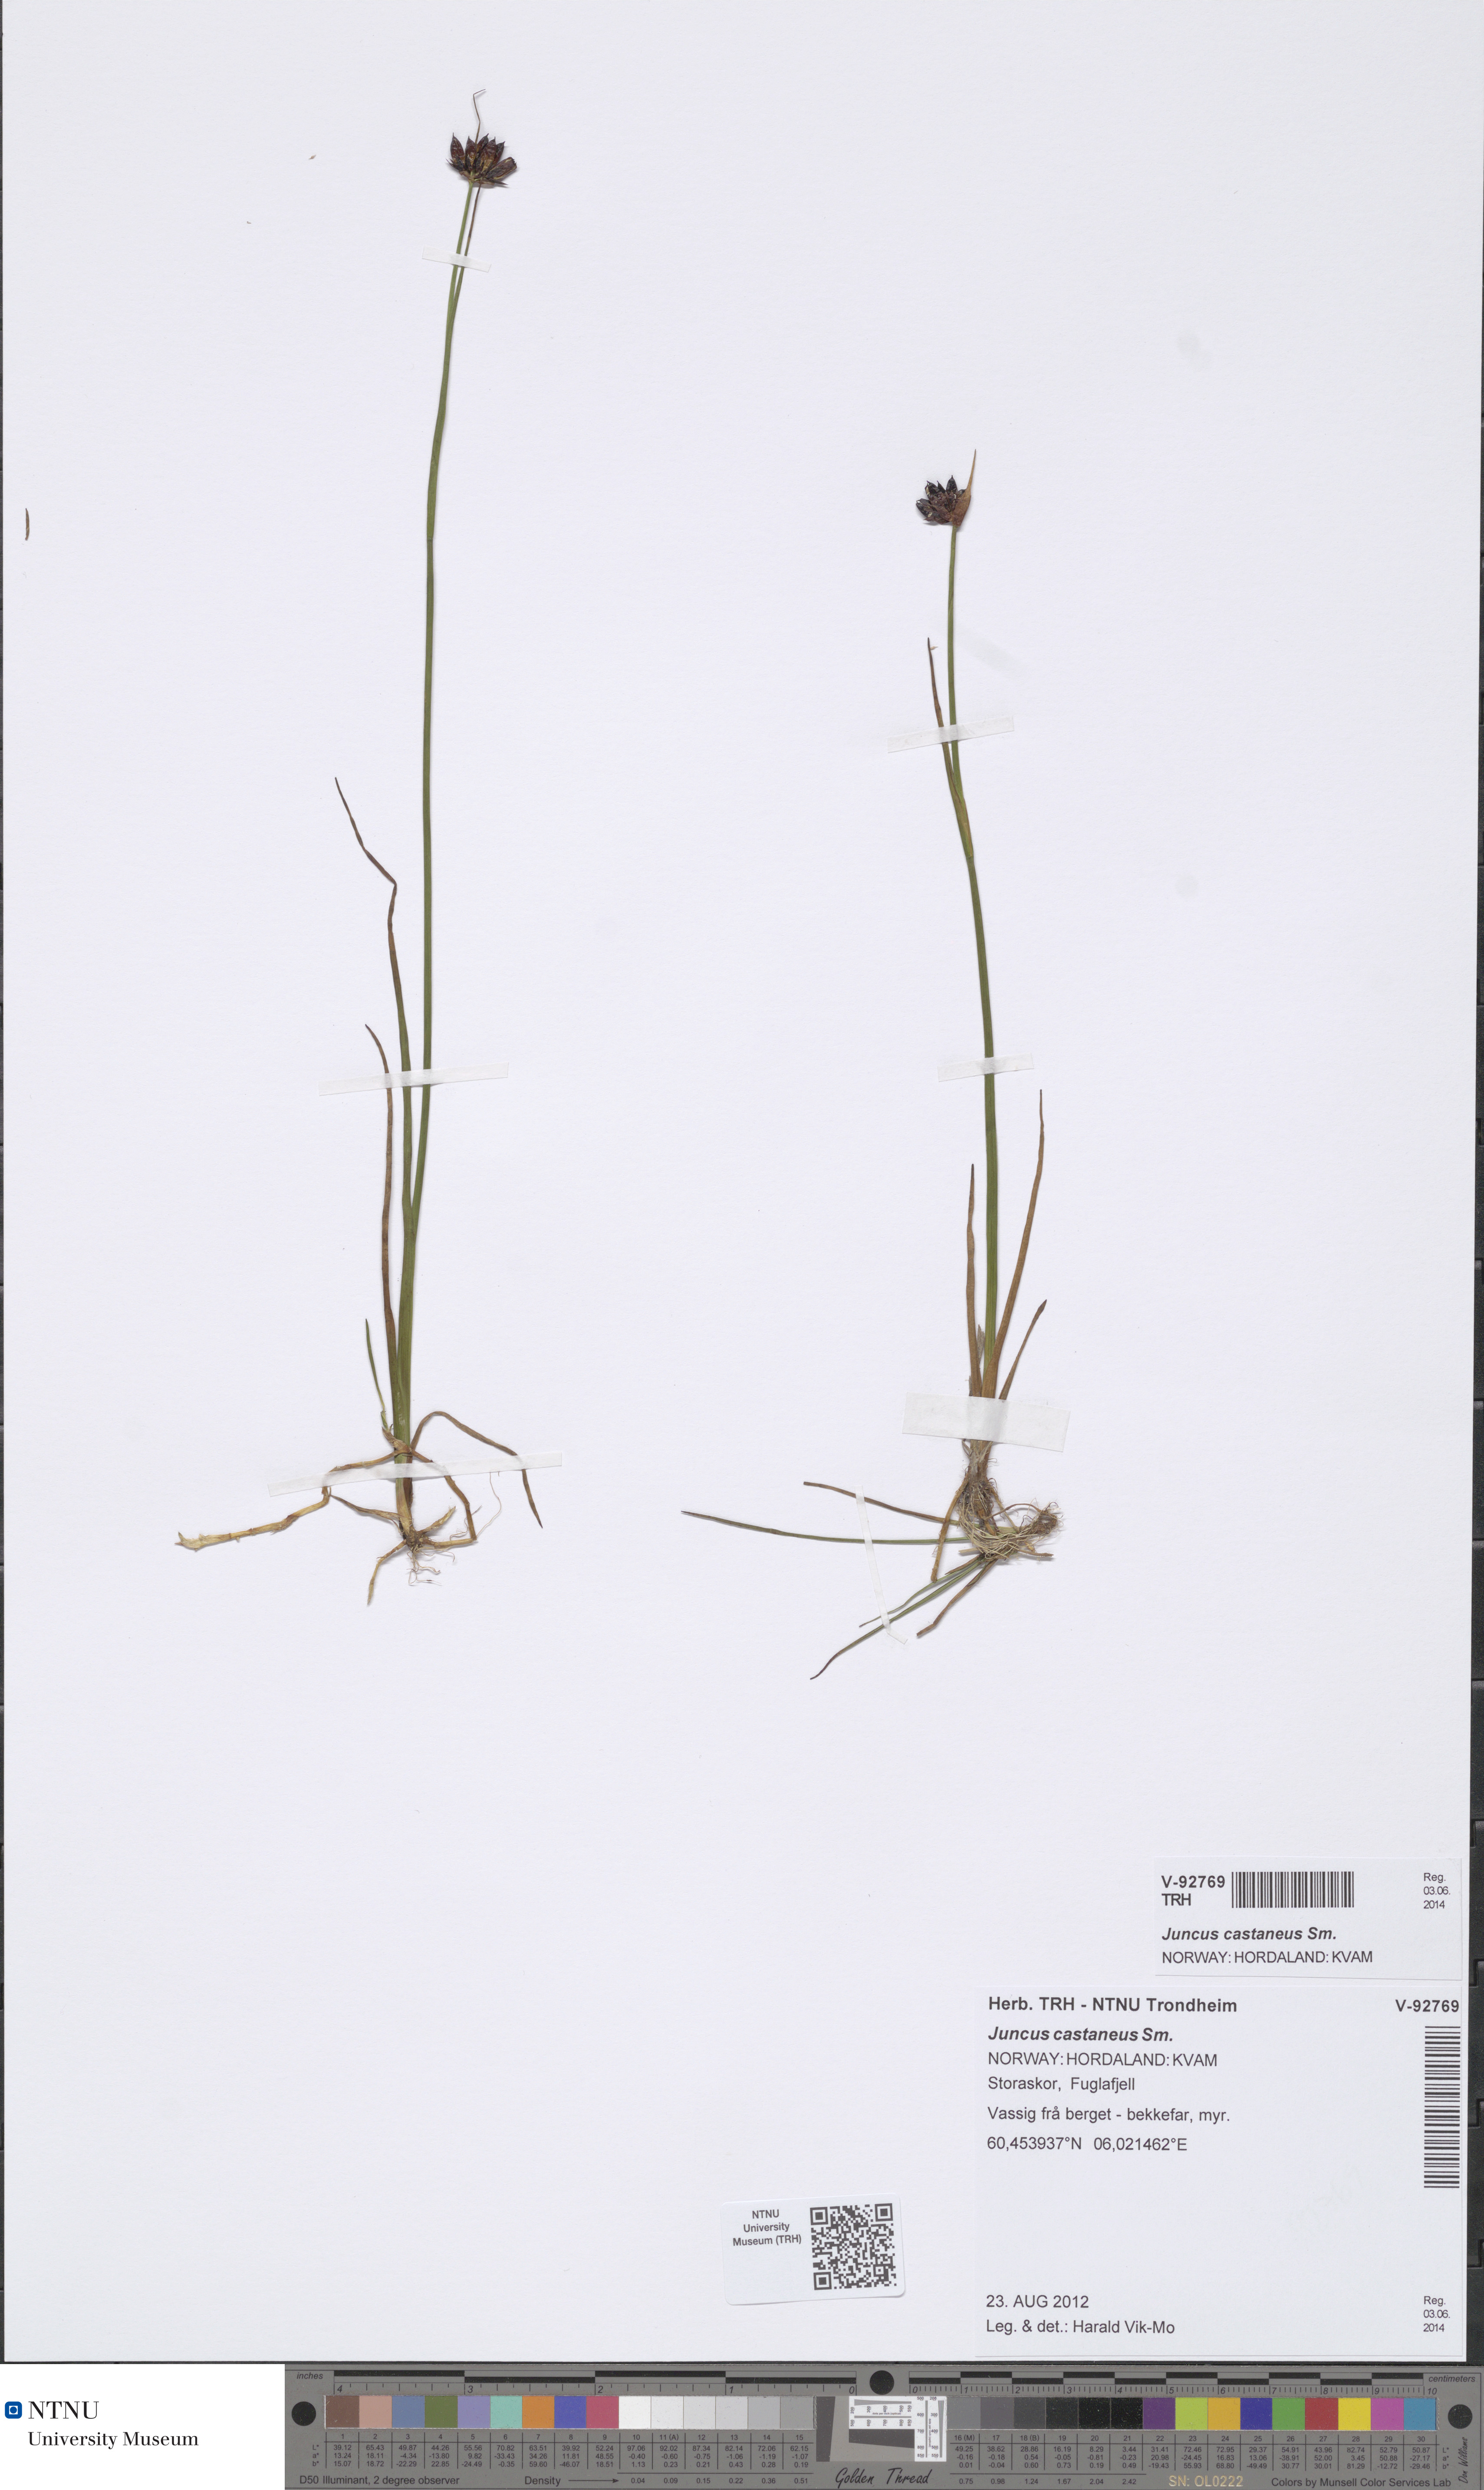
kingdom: Plantae
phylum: Tracheophyta
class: Liliopsida
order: Poales
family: Juncaceae
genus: Juncus
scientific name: Juncus castaneus
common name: Chestnut rush
